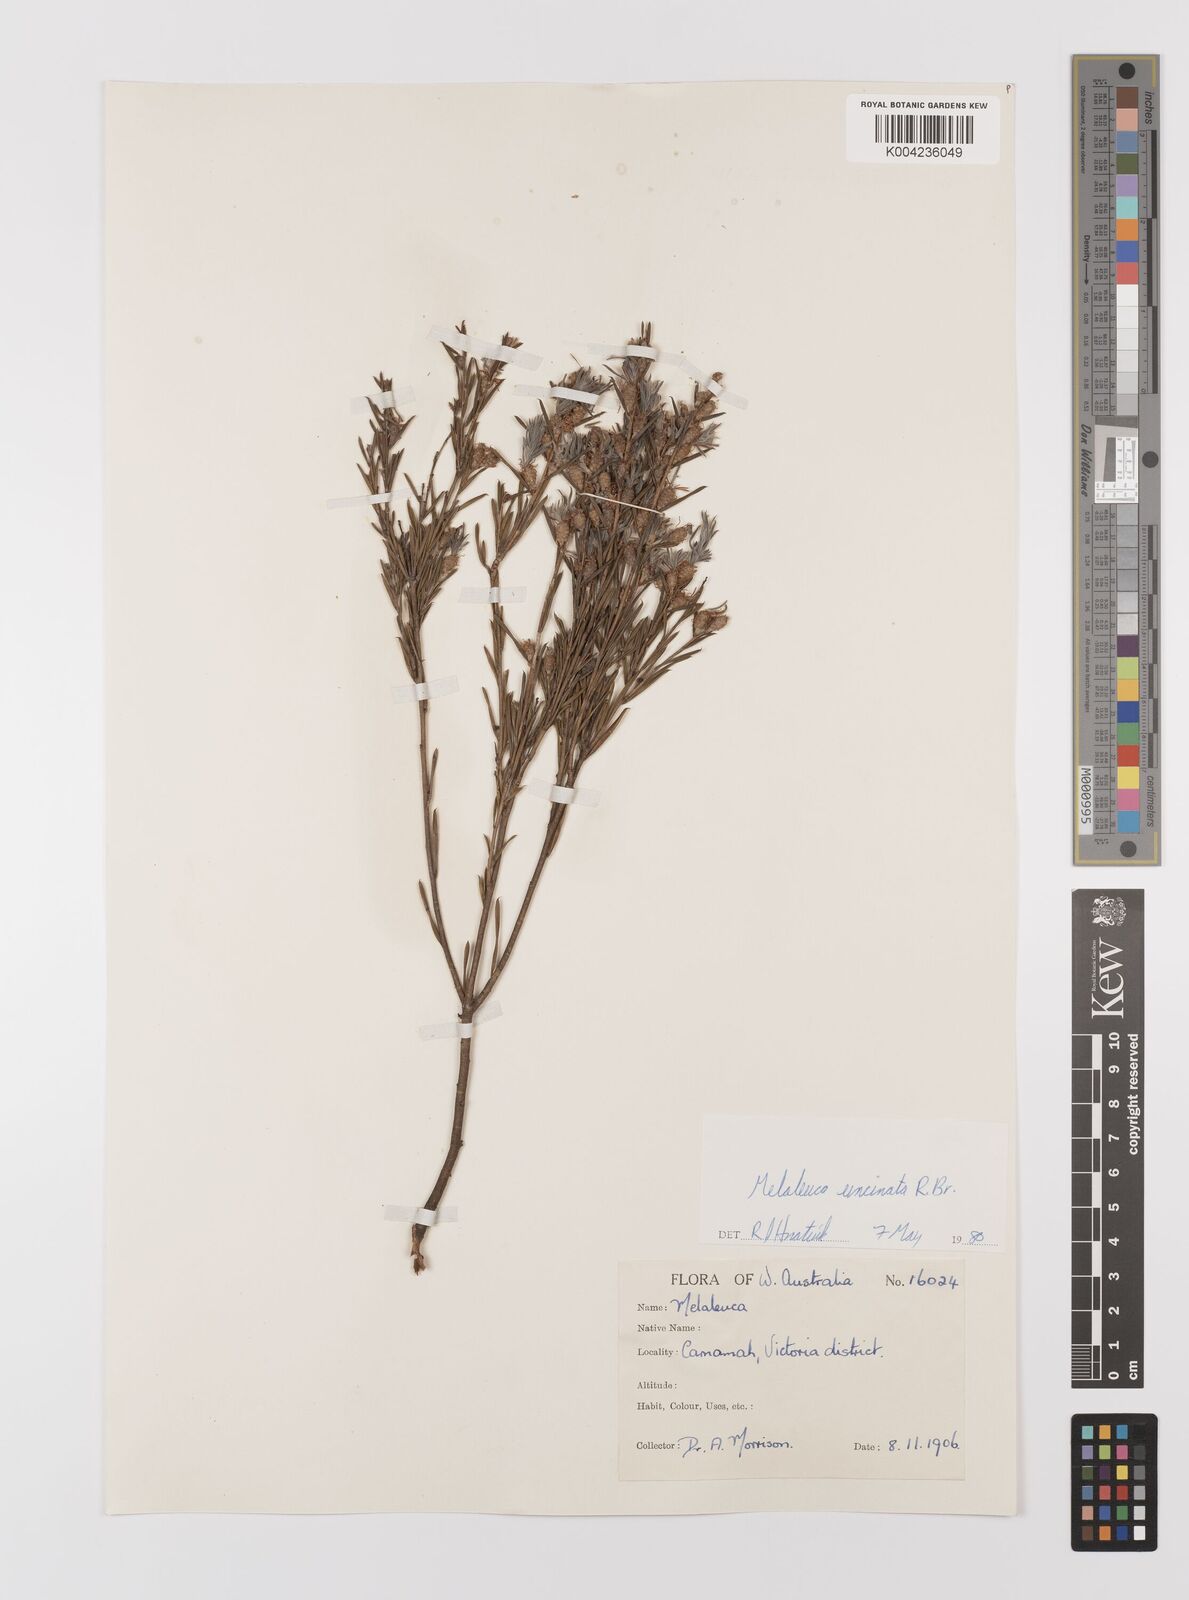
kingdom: Plantae
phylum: Tracheophyta
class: Magnoliopsida
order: Myrtales
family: Myrtaceae
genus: Melaleuca
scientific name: Melaleuca uncinata
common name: Broom honey myrtle
